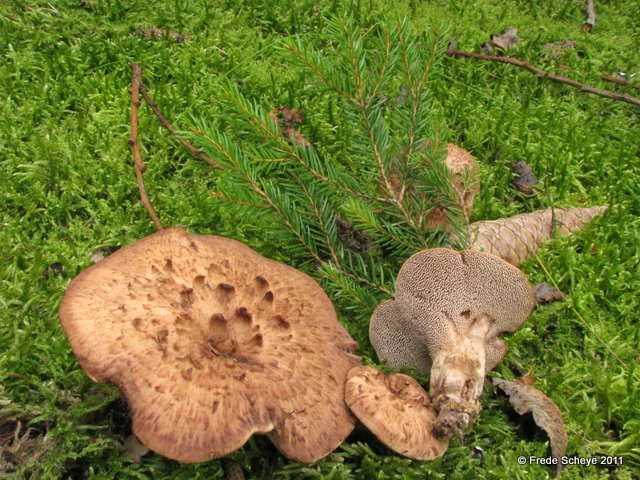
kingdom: Fungi
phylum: Basidiomycota
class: Agaricomycetes
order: Thelephorales
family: Bankeraceae
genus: Sarcodon
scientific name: Sarcodon imbricatus
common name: skællet kødpigsvamp
